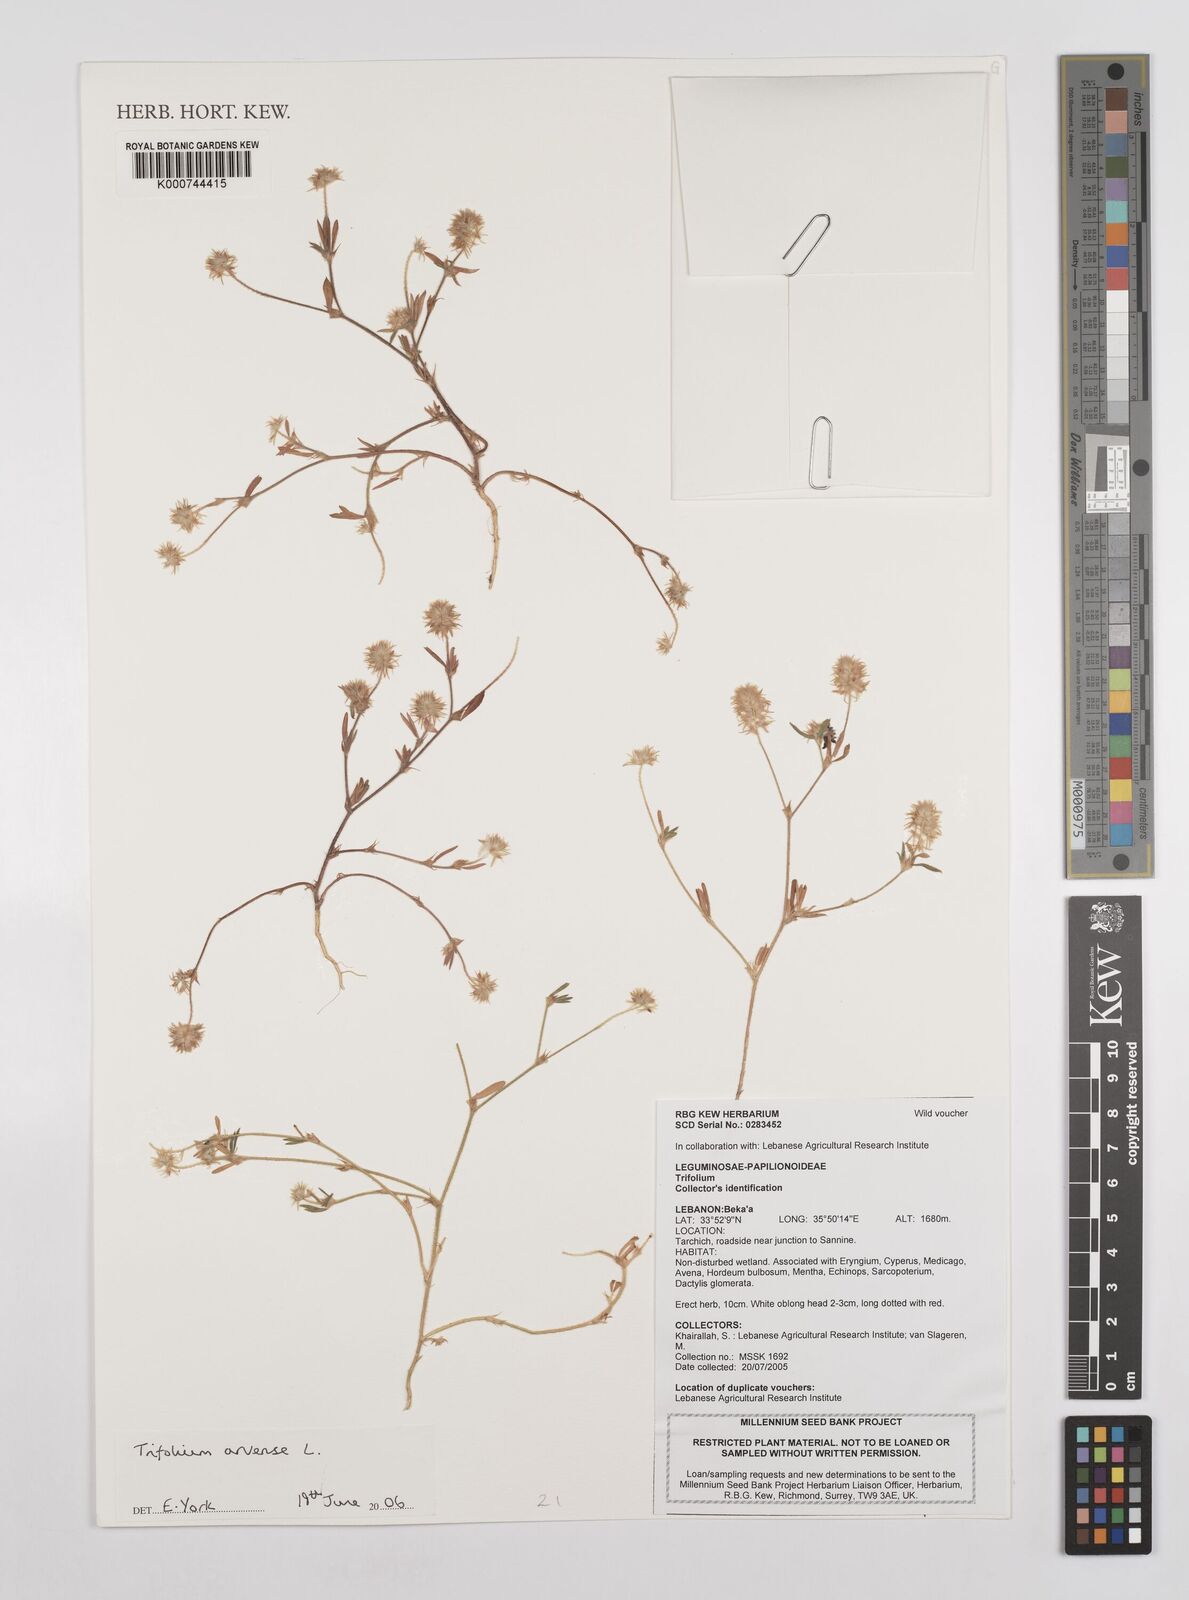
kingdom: Plantae
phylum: Tracheophyta
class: Magnoliopsida
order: Fabales
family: Fabaceae
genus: Trifolium
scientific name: Trifolium arvense
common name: Hare's-foot clover
